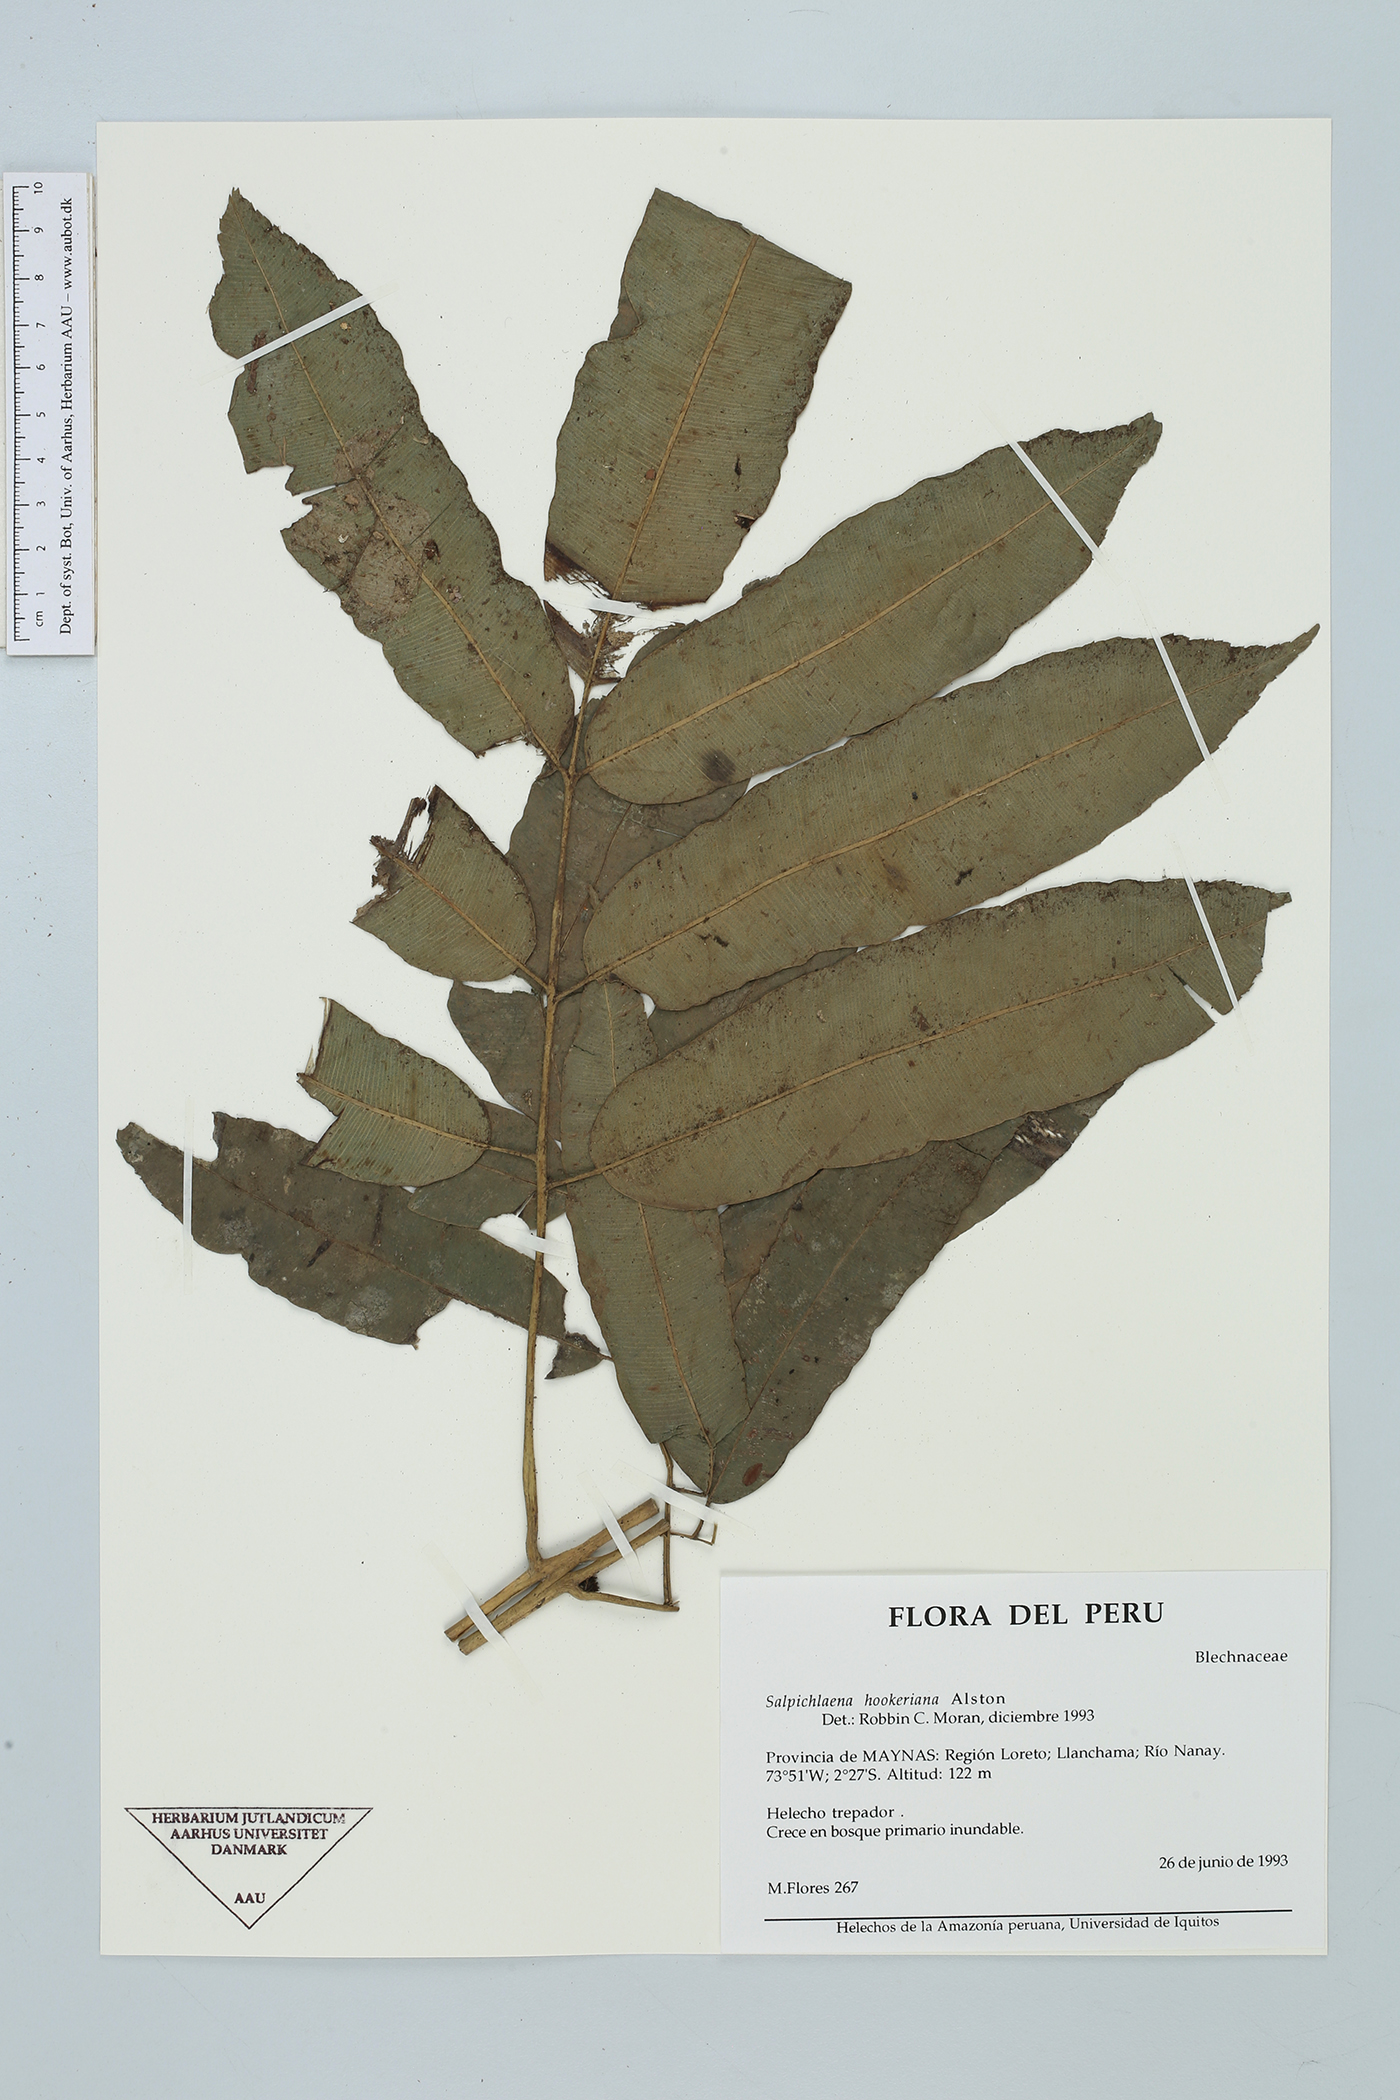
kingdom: Plantae
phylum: Tracheophyta
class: Polypodiopsida
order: Polypodiales
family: Blechnaceae
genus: Salpichlaena
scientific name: Salpichlaena hookeriana
